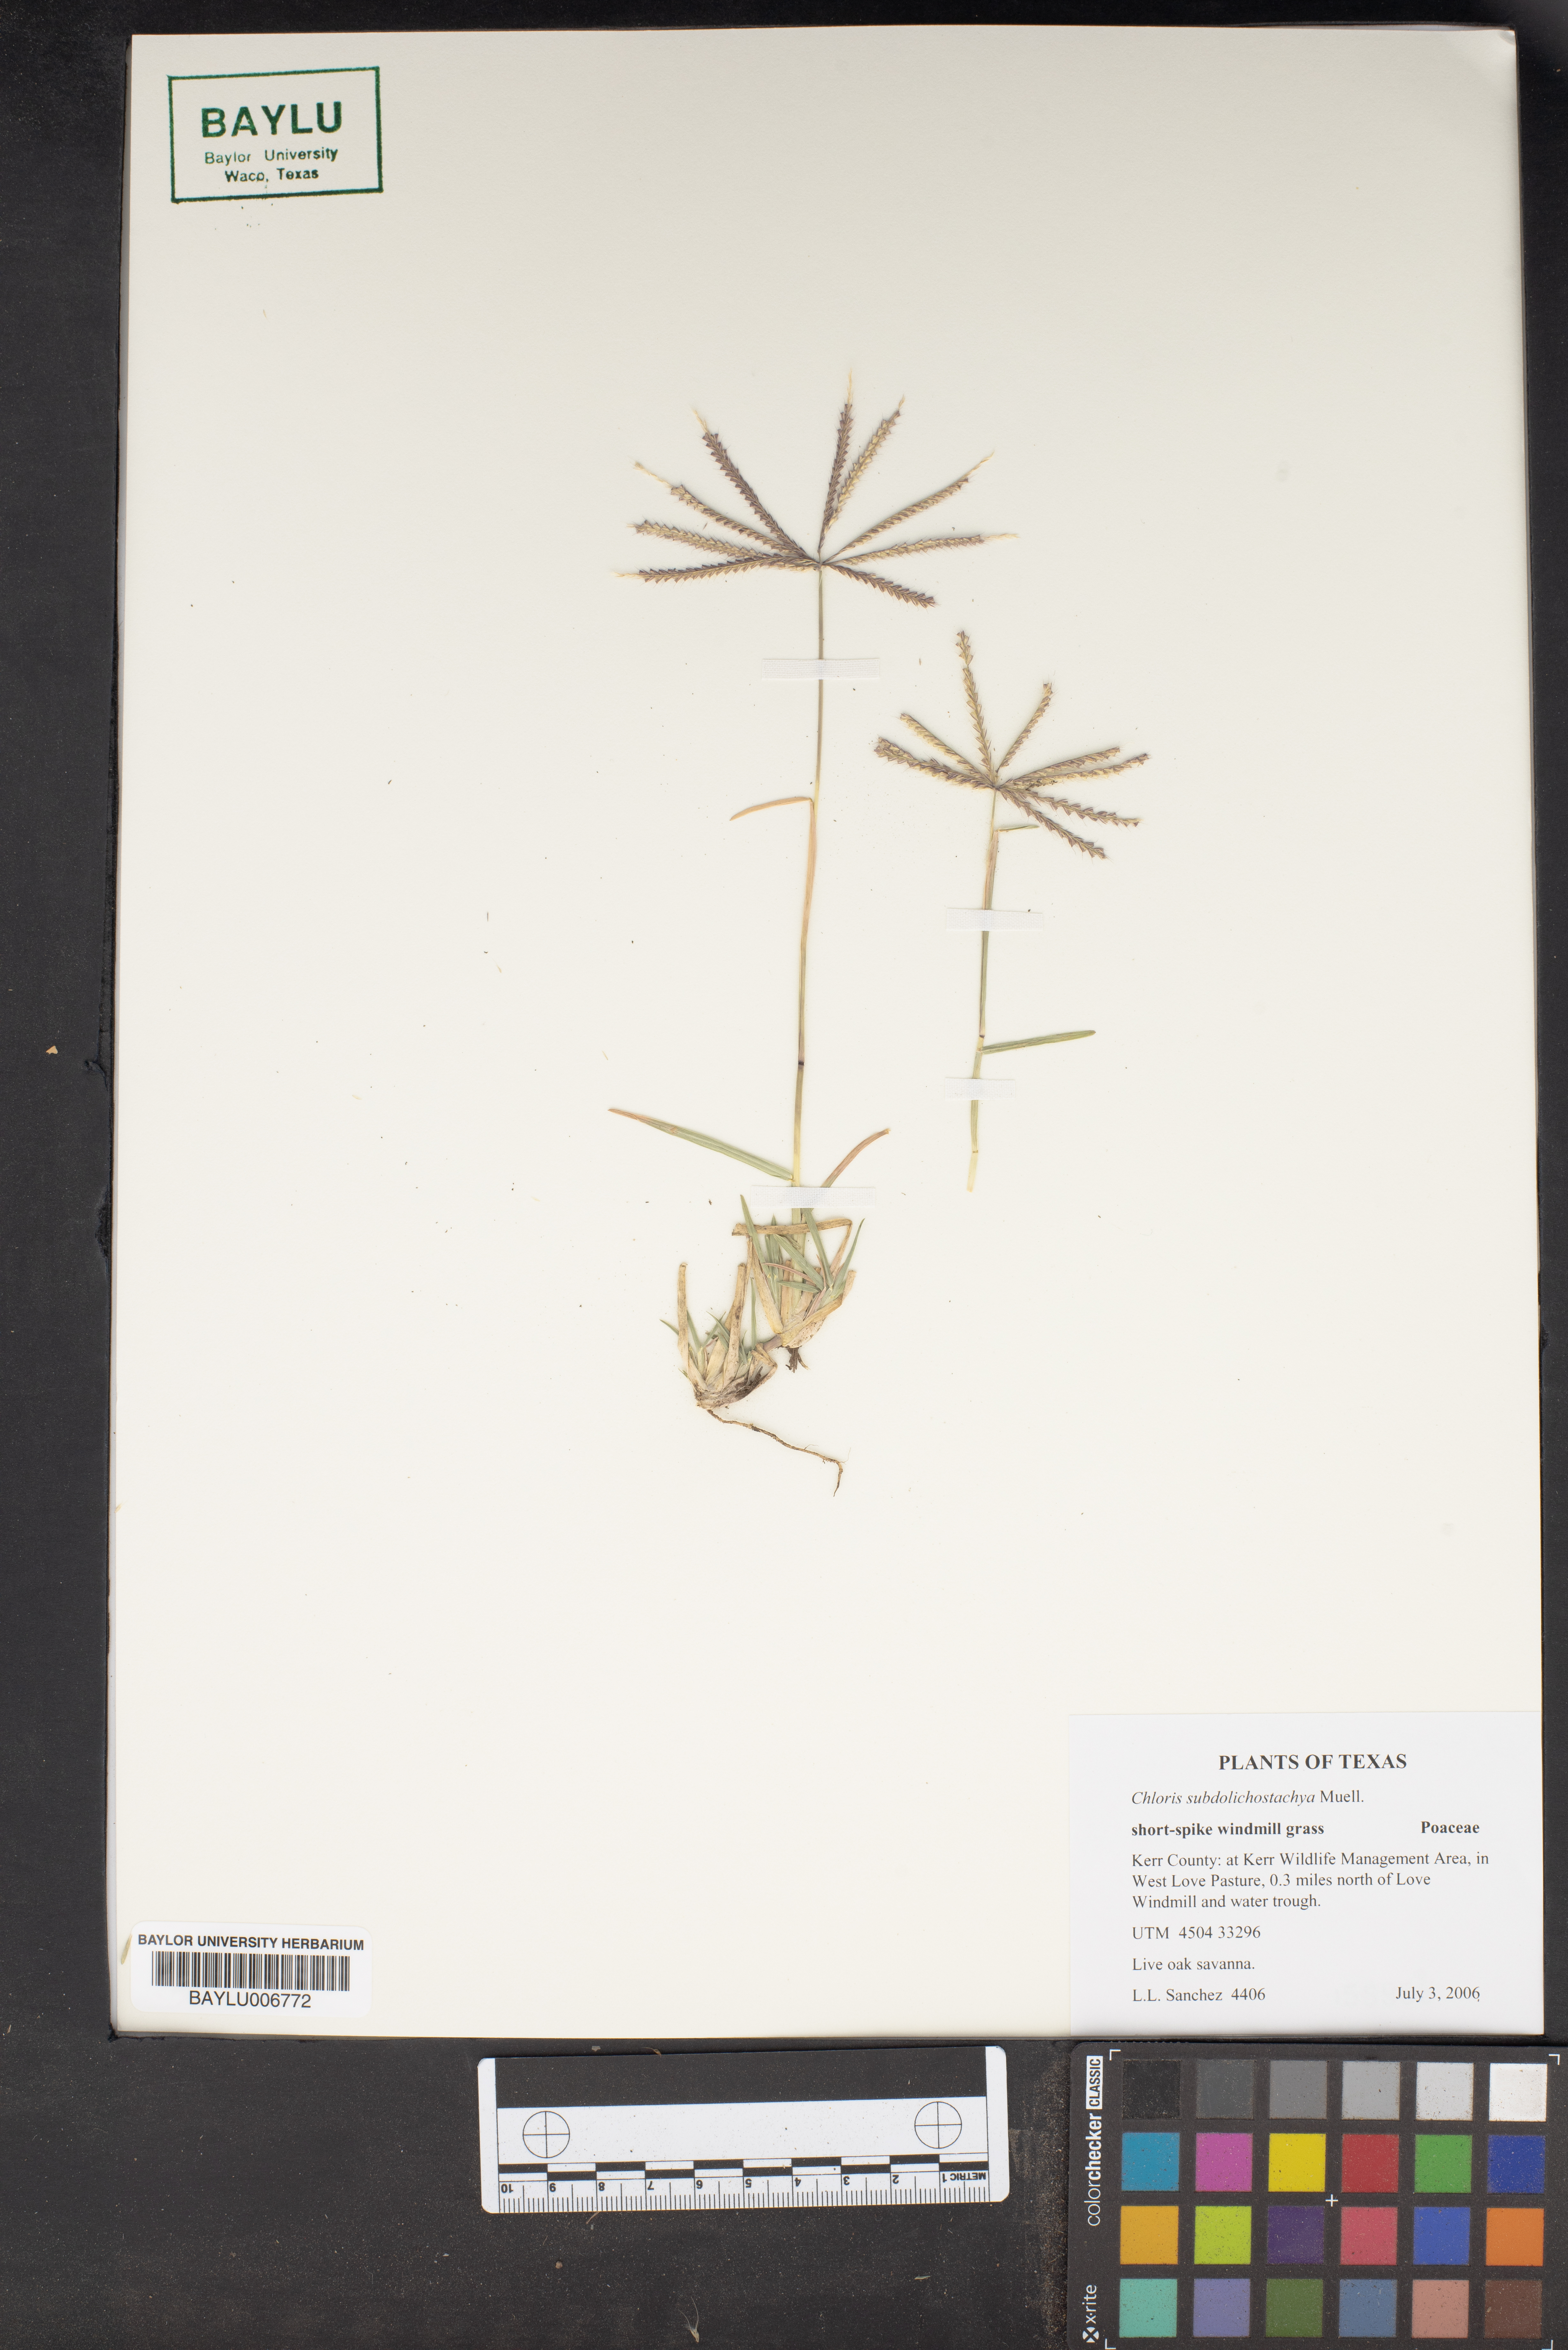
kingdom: Plantae
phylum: Tracheophyta
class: Liliopsida
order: Poales
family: Poaceae
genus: Chloris
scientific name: Chloris subdolichostachya
